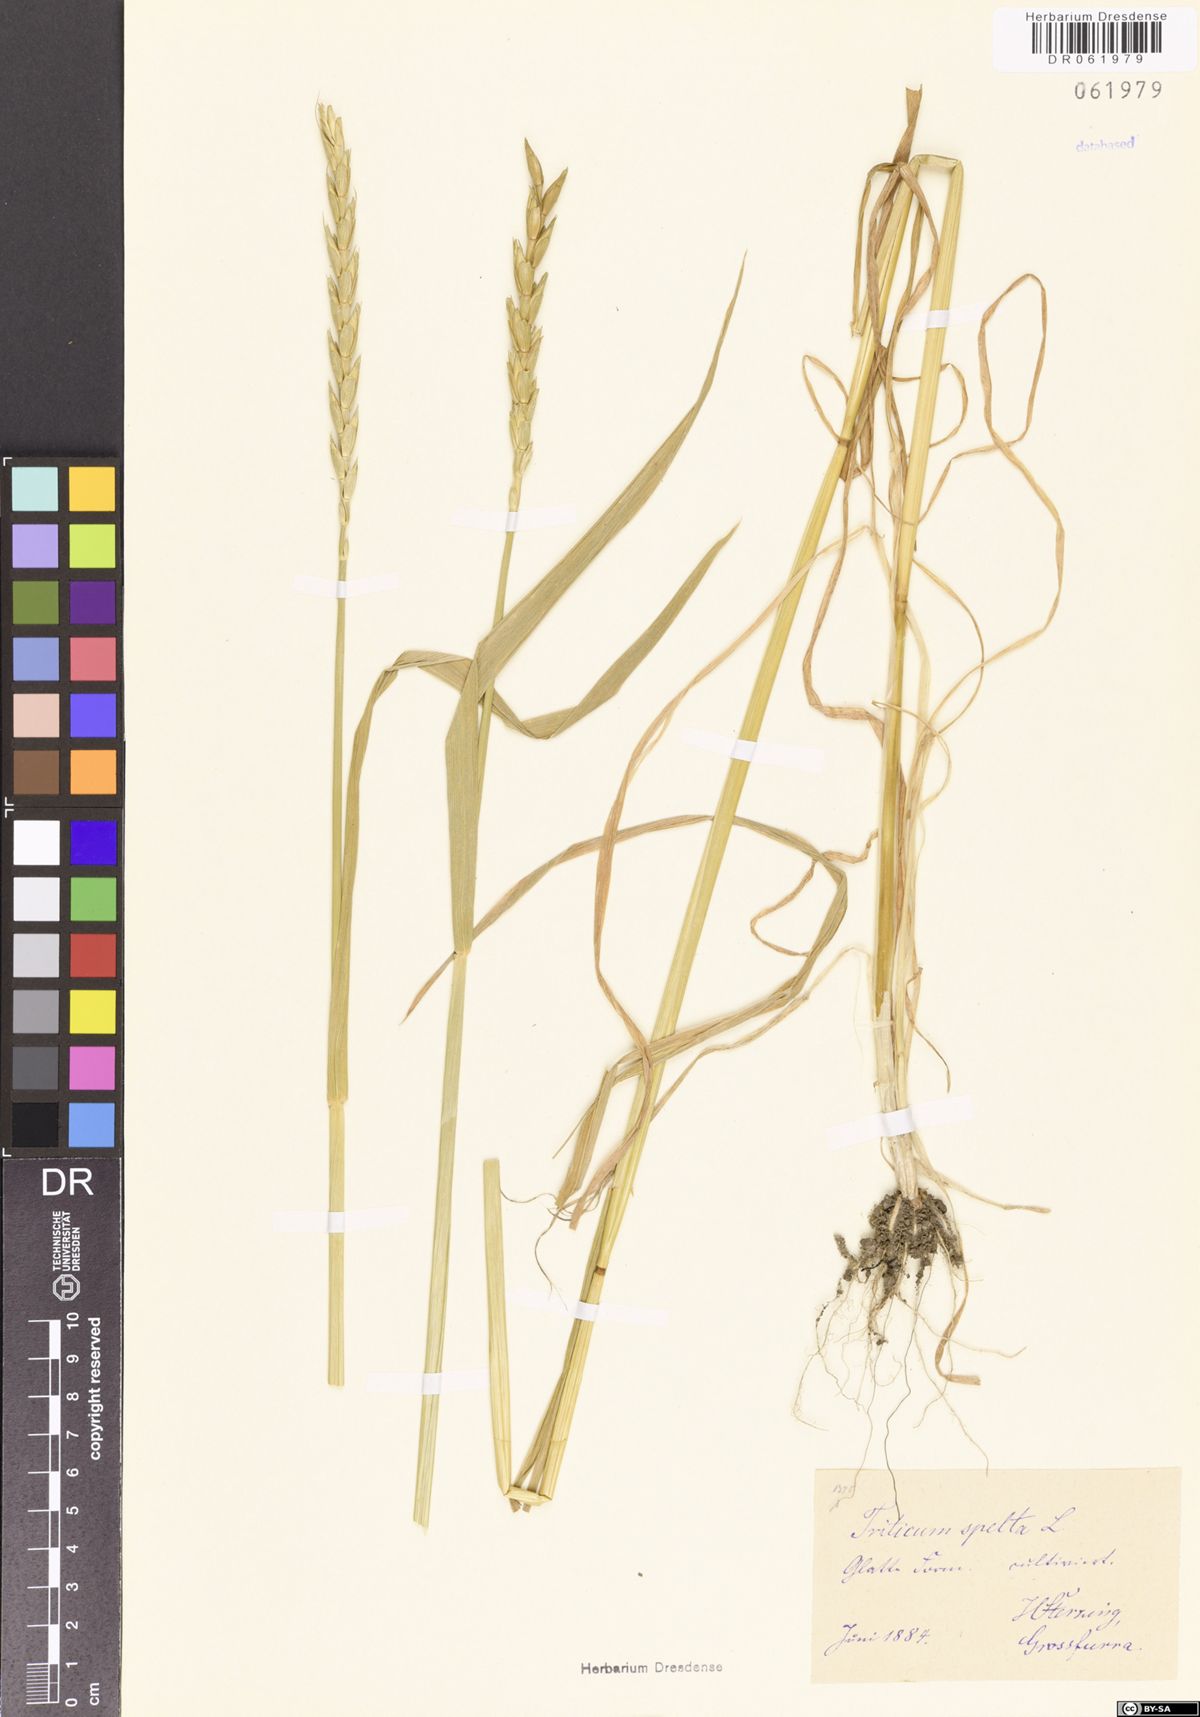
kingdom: Plantae
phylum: Tracheophyta
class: Liliopsida
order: Poales
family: Poaceae
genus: Triticum
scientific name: Triticum aestivum
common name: Common wheat
